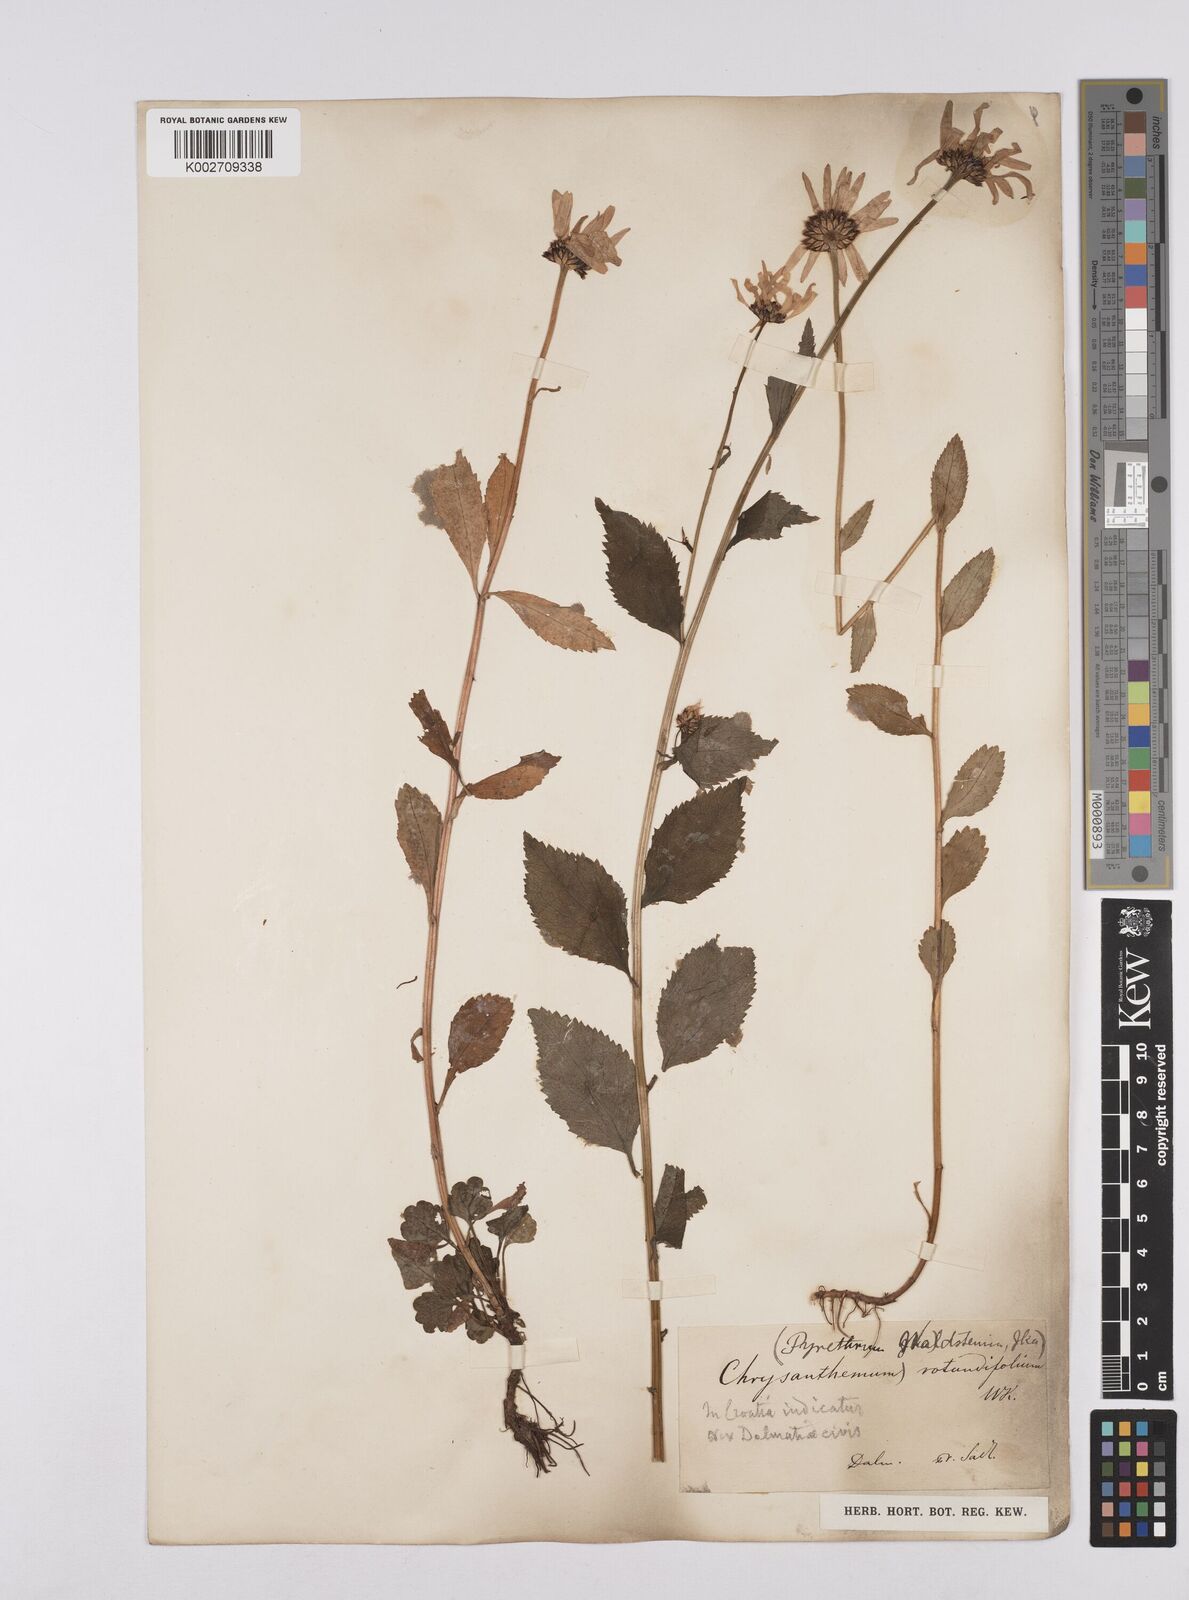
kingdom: Plantae
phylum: Tracheophyta
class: Magnoliopsida
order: Asterales
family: Asteraceae
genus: Leucanthemum
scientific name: Leucanthemum rotundifolium
